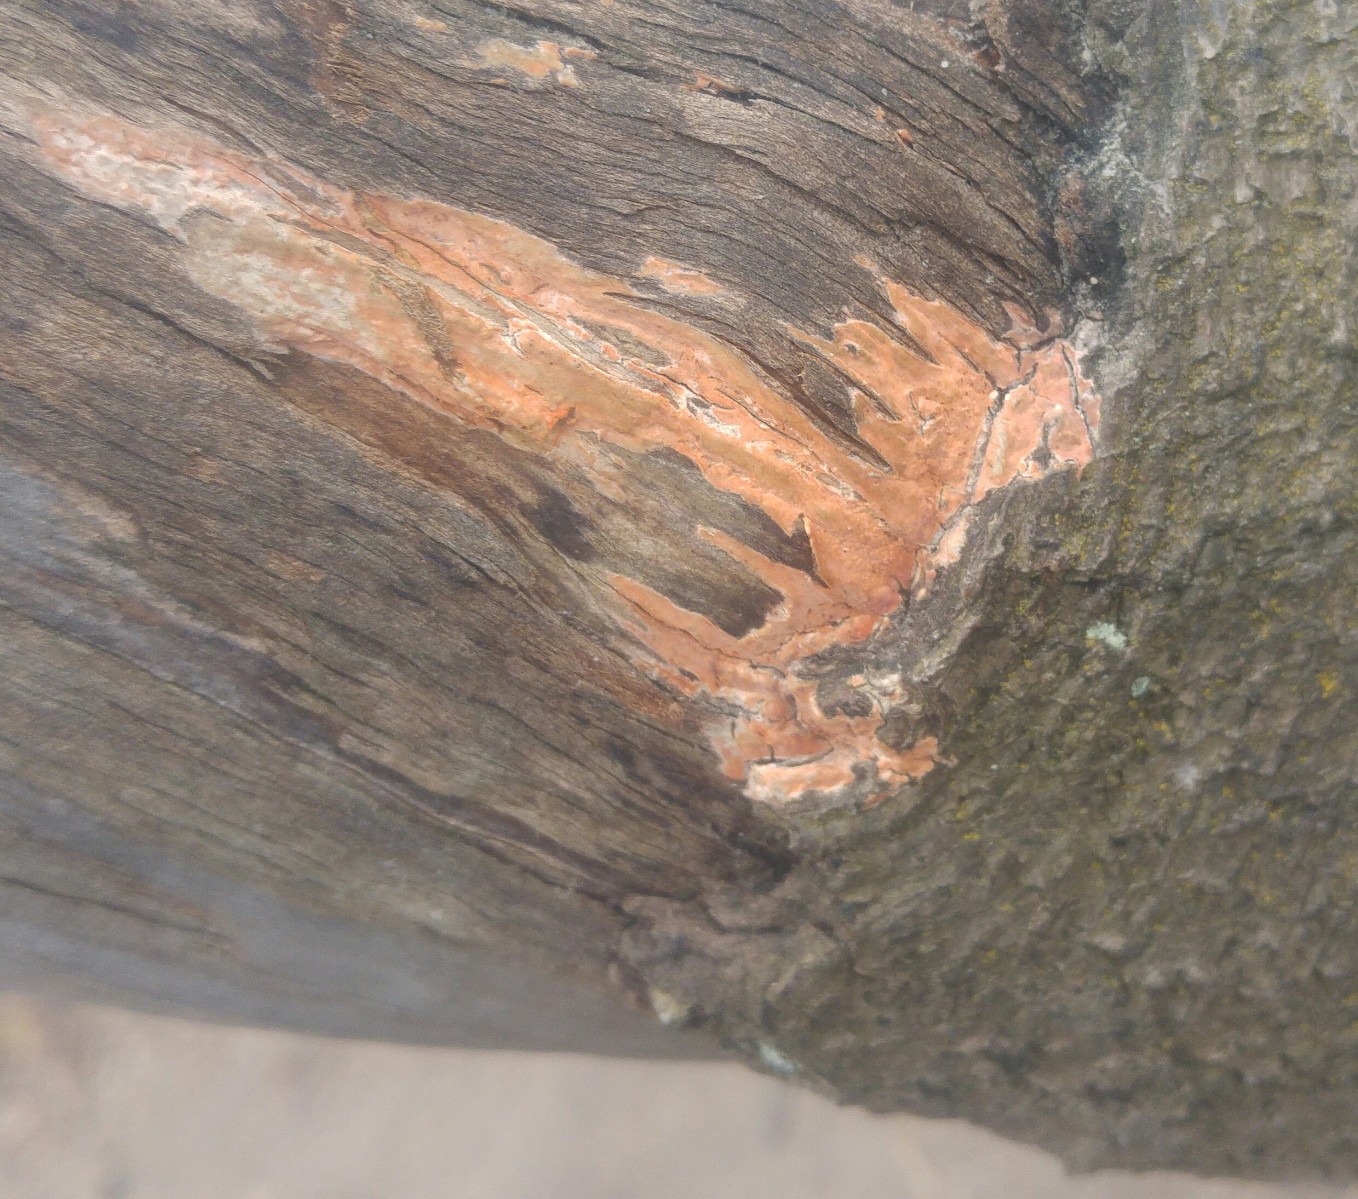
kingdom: Fungi
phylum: Basidiomycota
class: Agaricomycetes
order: Russulales
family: Peniophoraceae
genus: Peniophora
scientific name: Peniophora incarnata
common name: laksefarvet voksskind
